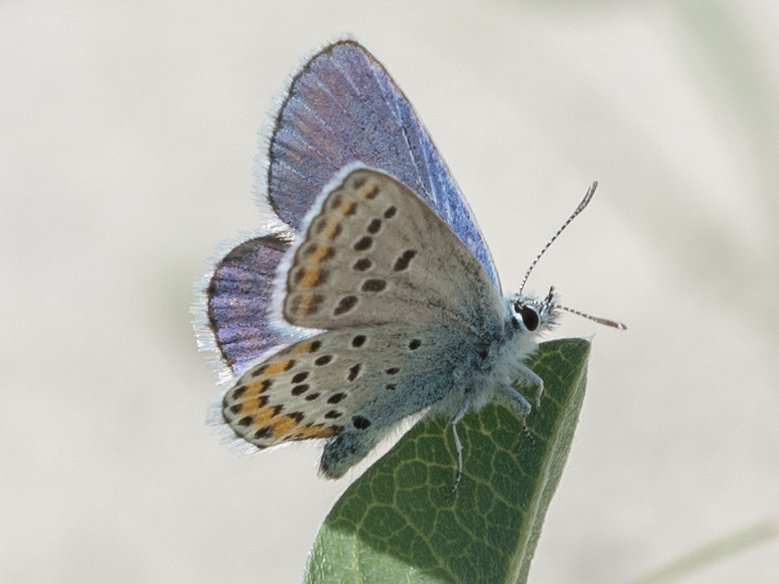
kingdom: Animalia
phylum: Arthropoda
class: Insecta
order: Lepidoptera
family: Lycaenidae
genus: Lycaeides
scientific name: Lycaeides melissa
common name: Melissa Blue
